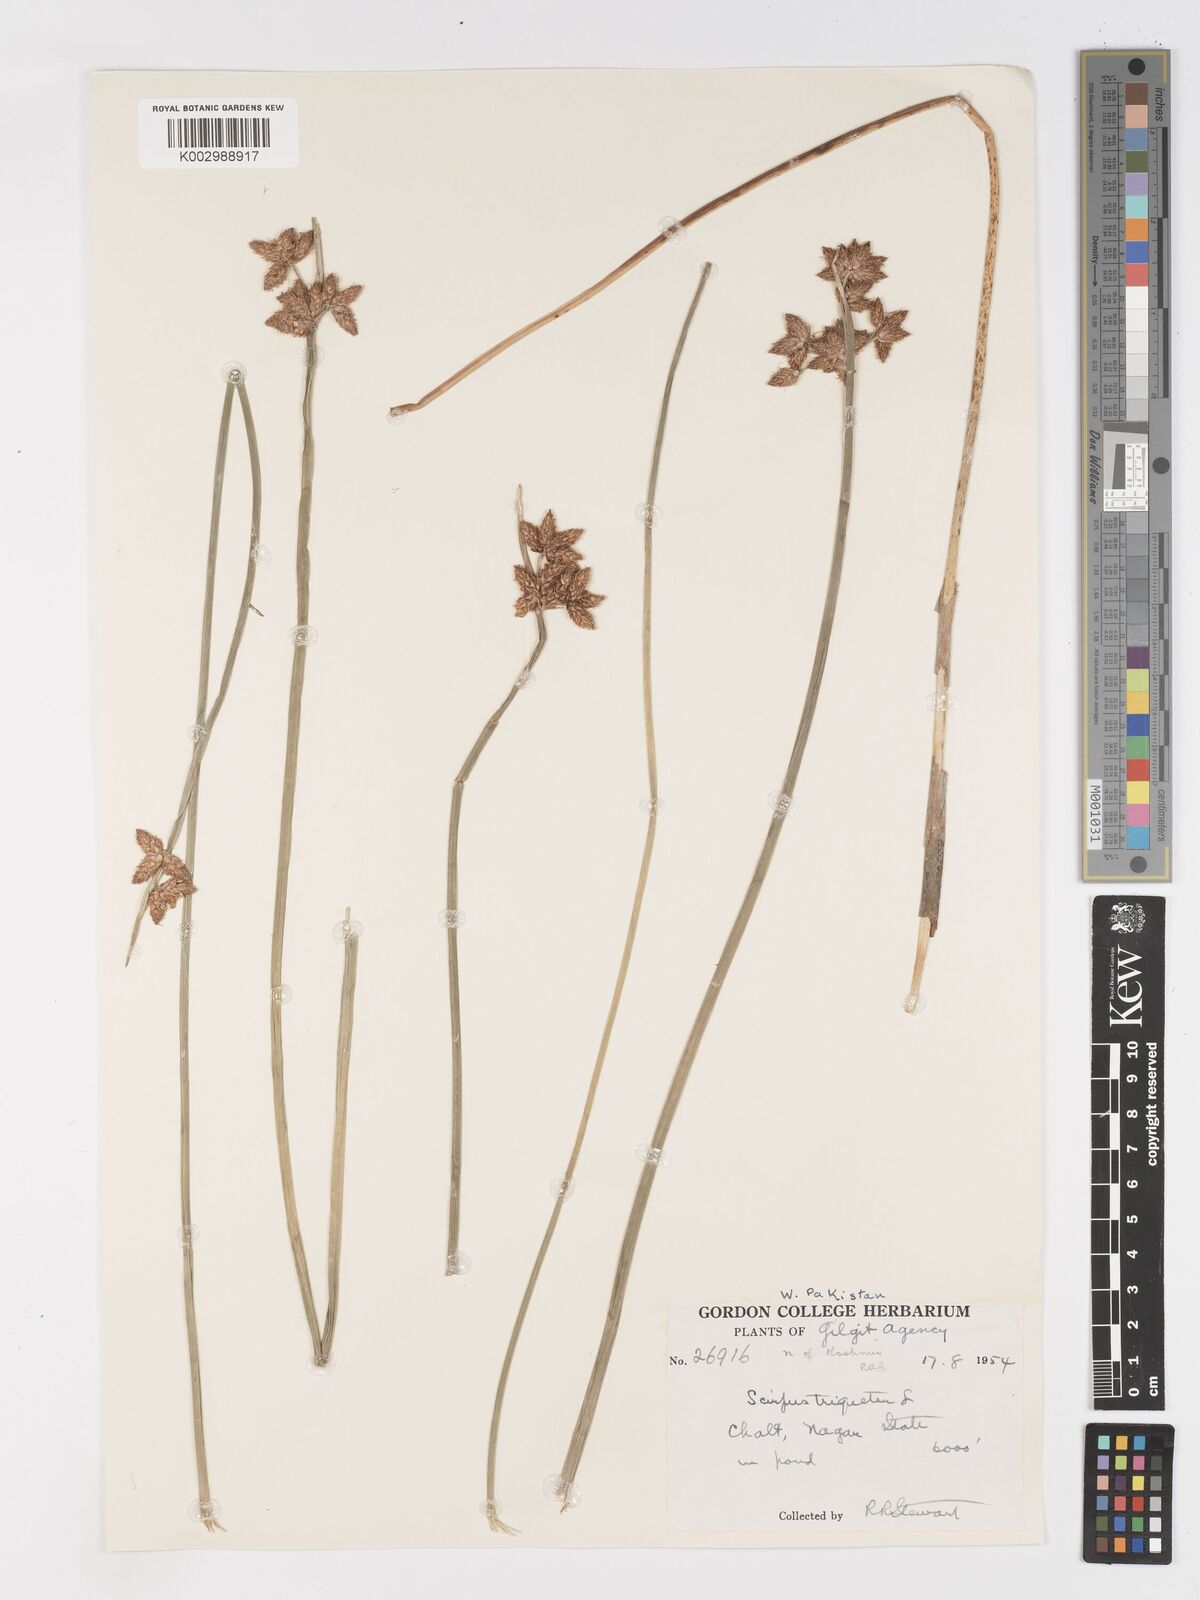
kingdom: Plantae
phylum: Tracheophyta
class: Liliopsida
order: Poales
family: Cyperaceae
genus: Schoenoplectus
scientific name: Schoenoplectus triqueter
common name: Triangular club-rush
